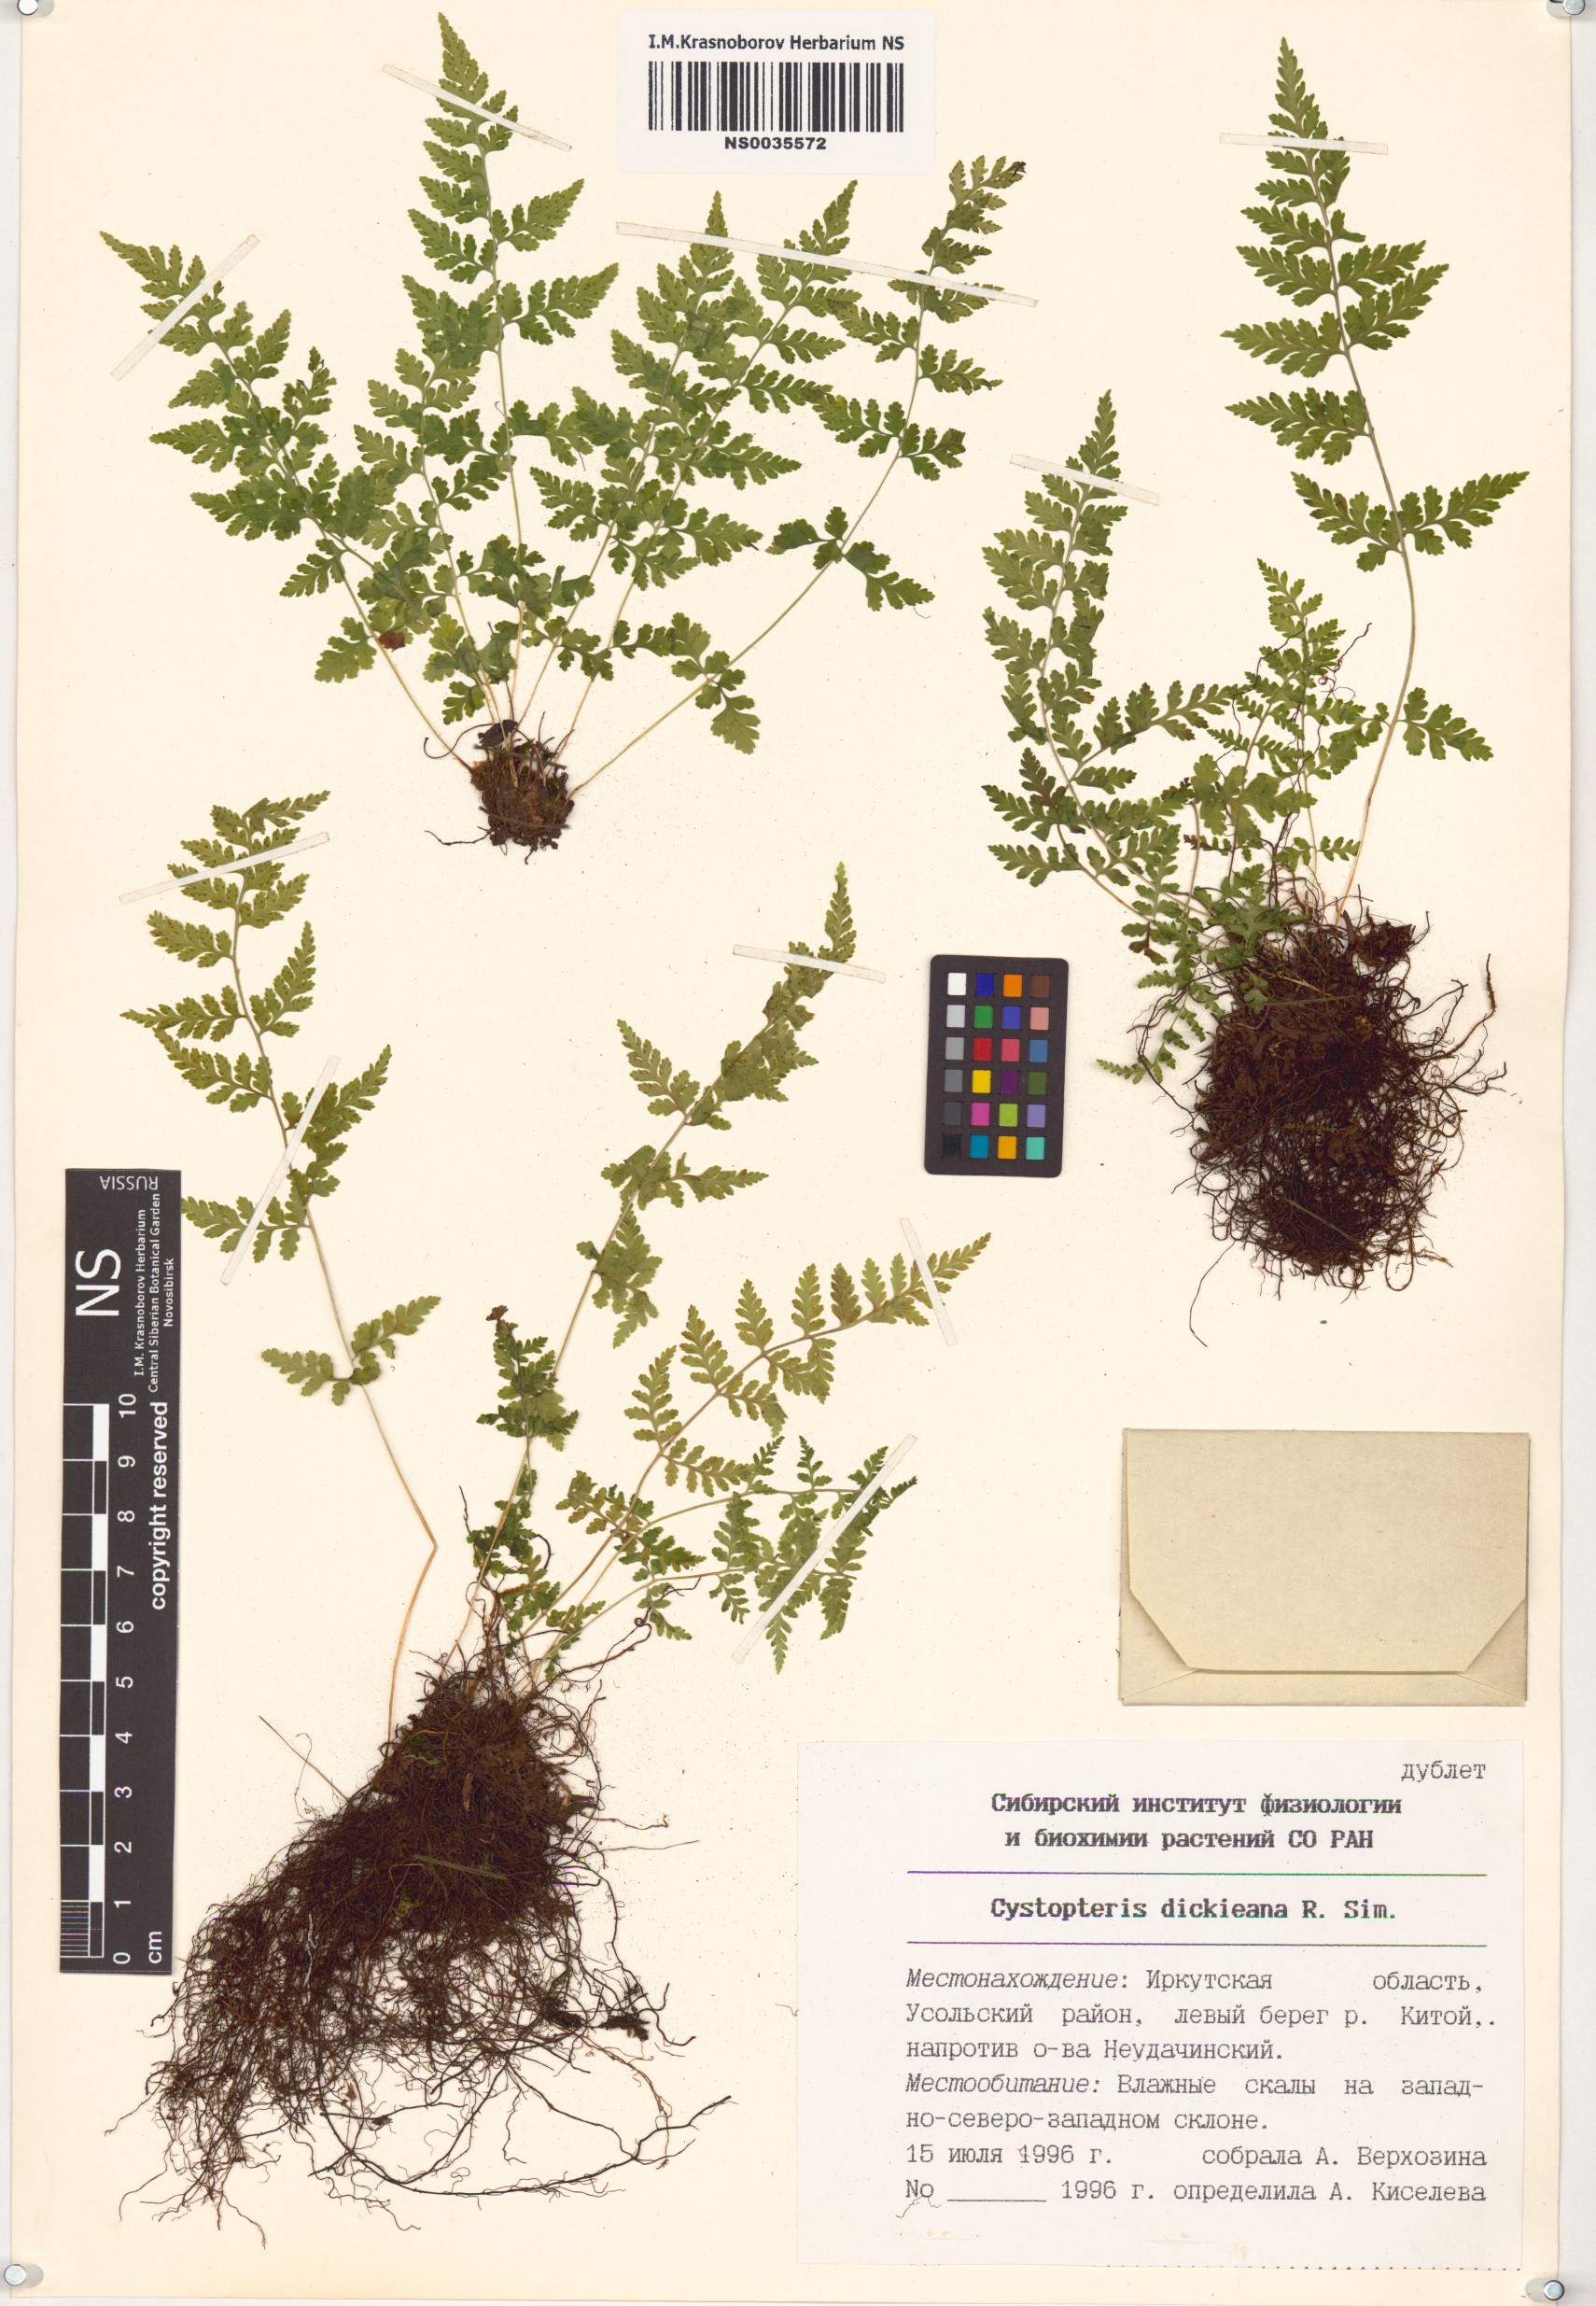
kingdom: Plantae
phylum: Tracheophyta
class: Polypodiopsida
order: Polypodiales
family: Cystopteridaceae
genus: Cystopteris
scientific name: Cystopteris dickieana
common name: Dickie's bladder-fern
